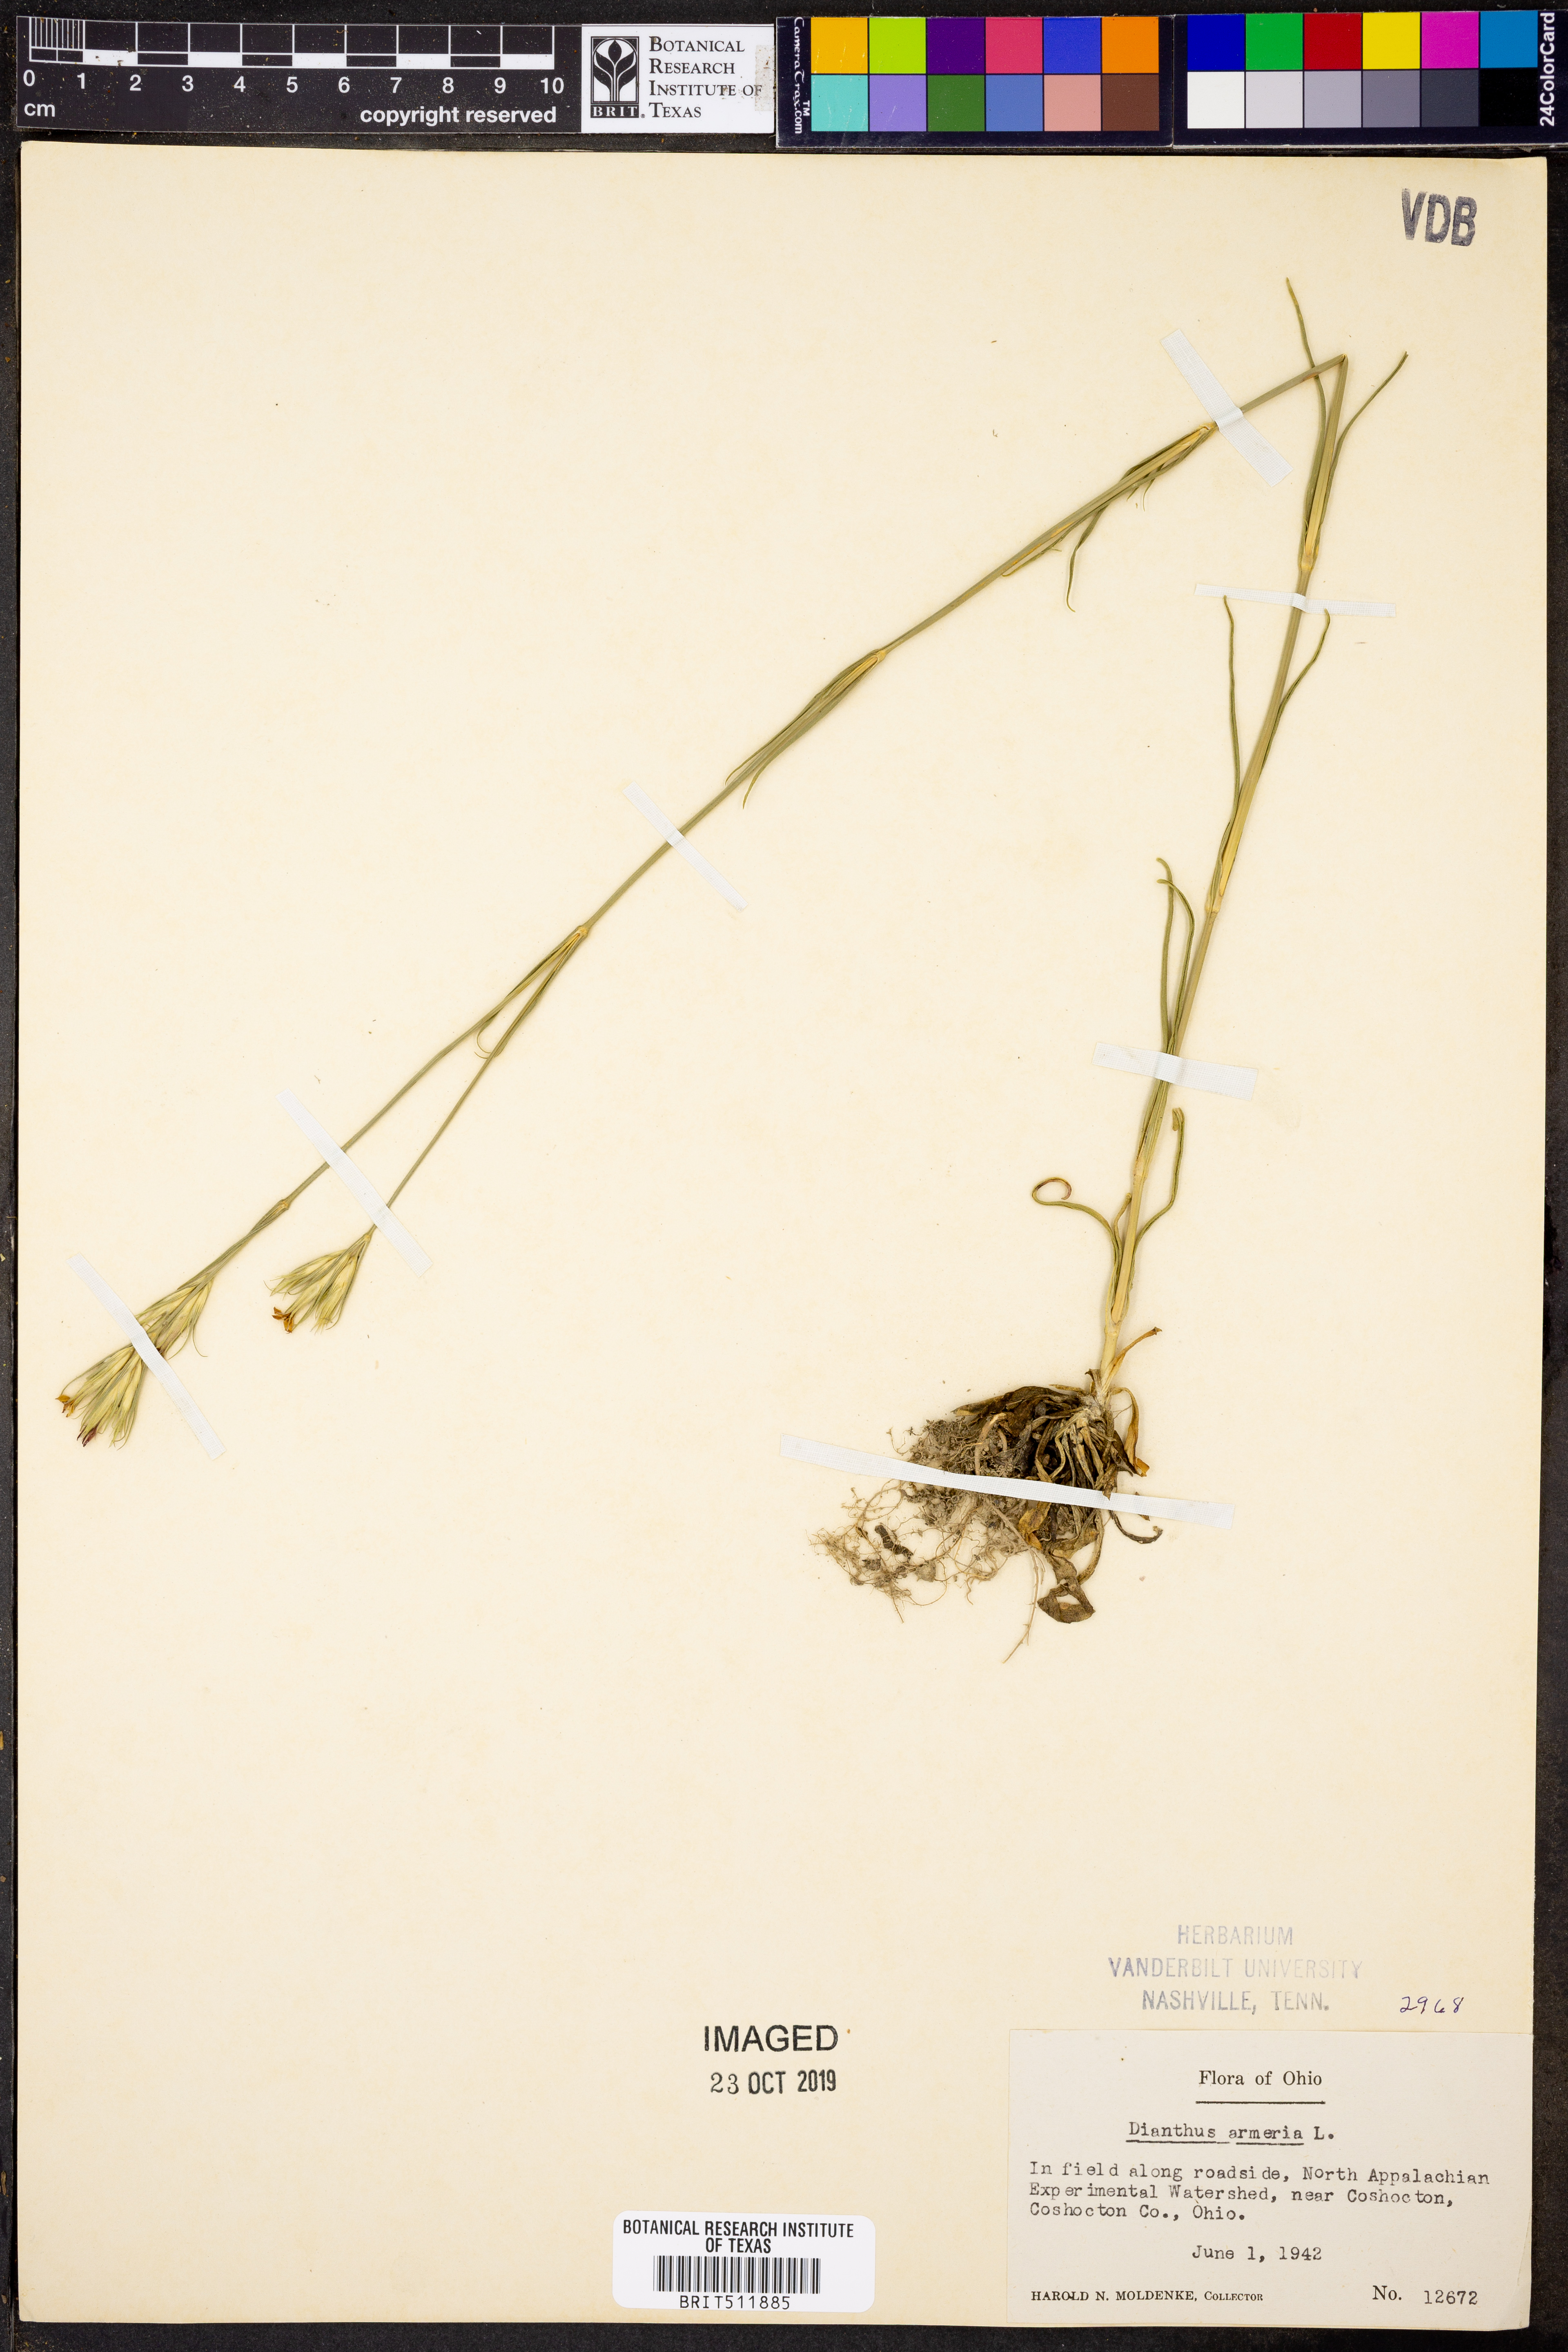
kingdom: Plantae
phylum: Tracheophyta
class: Magnoliopsida
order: Caryophyllales
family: Caryophyllaceae
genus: Dianthus
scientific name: Dianthus armeria
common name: Deptford pink
